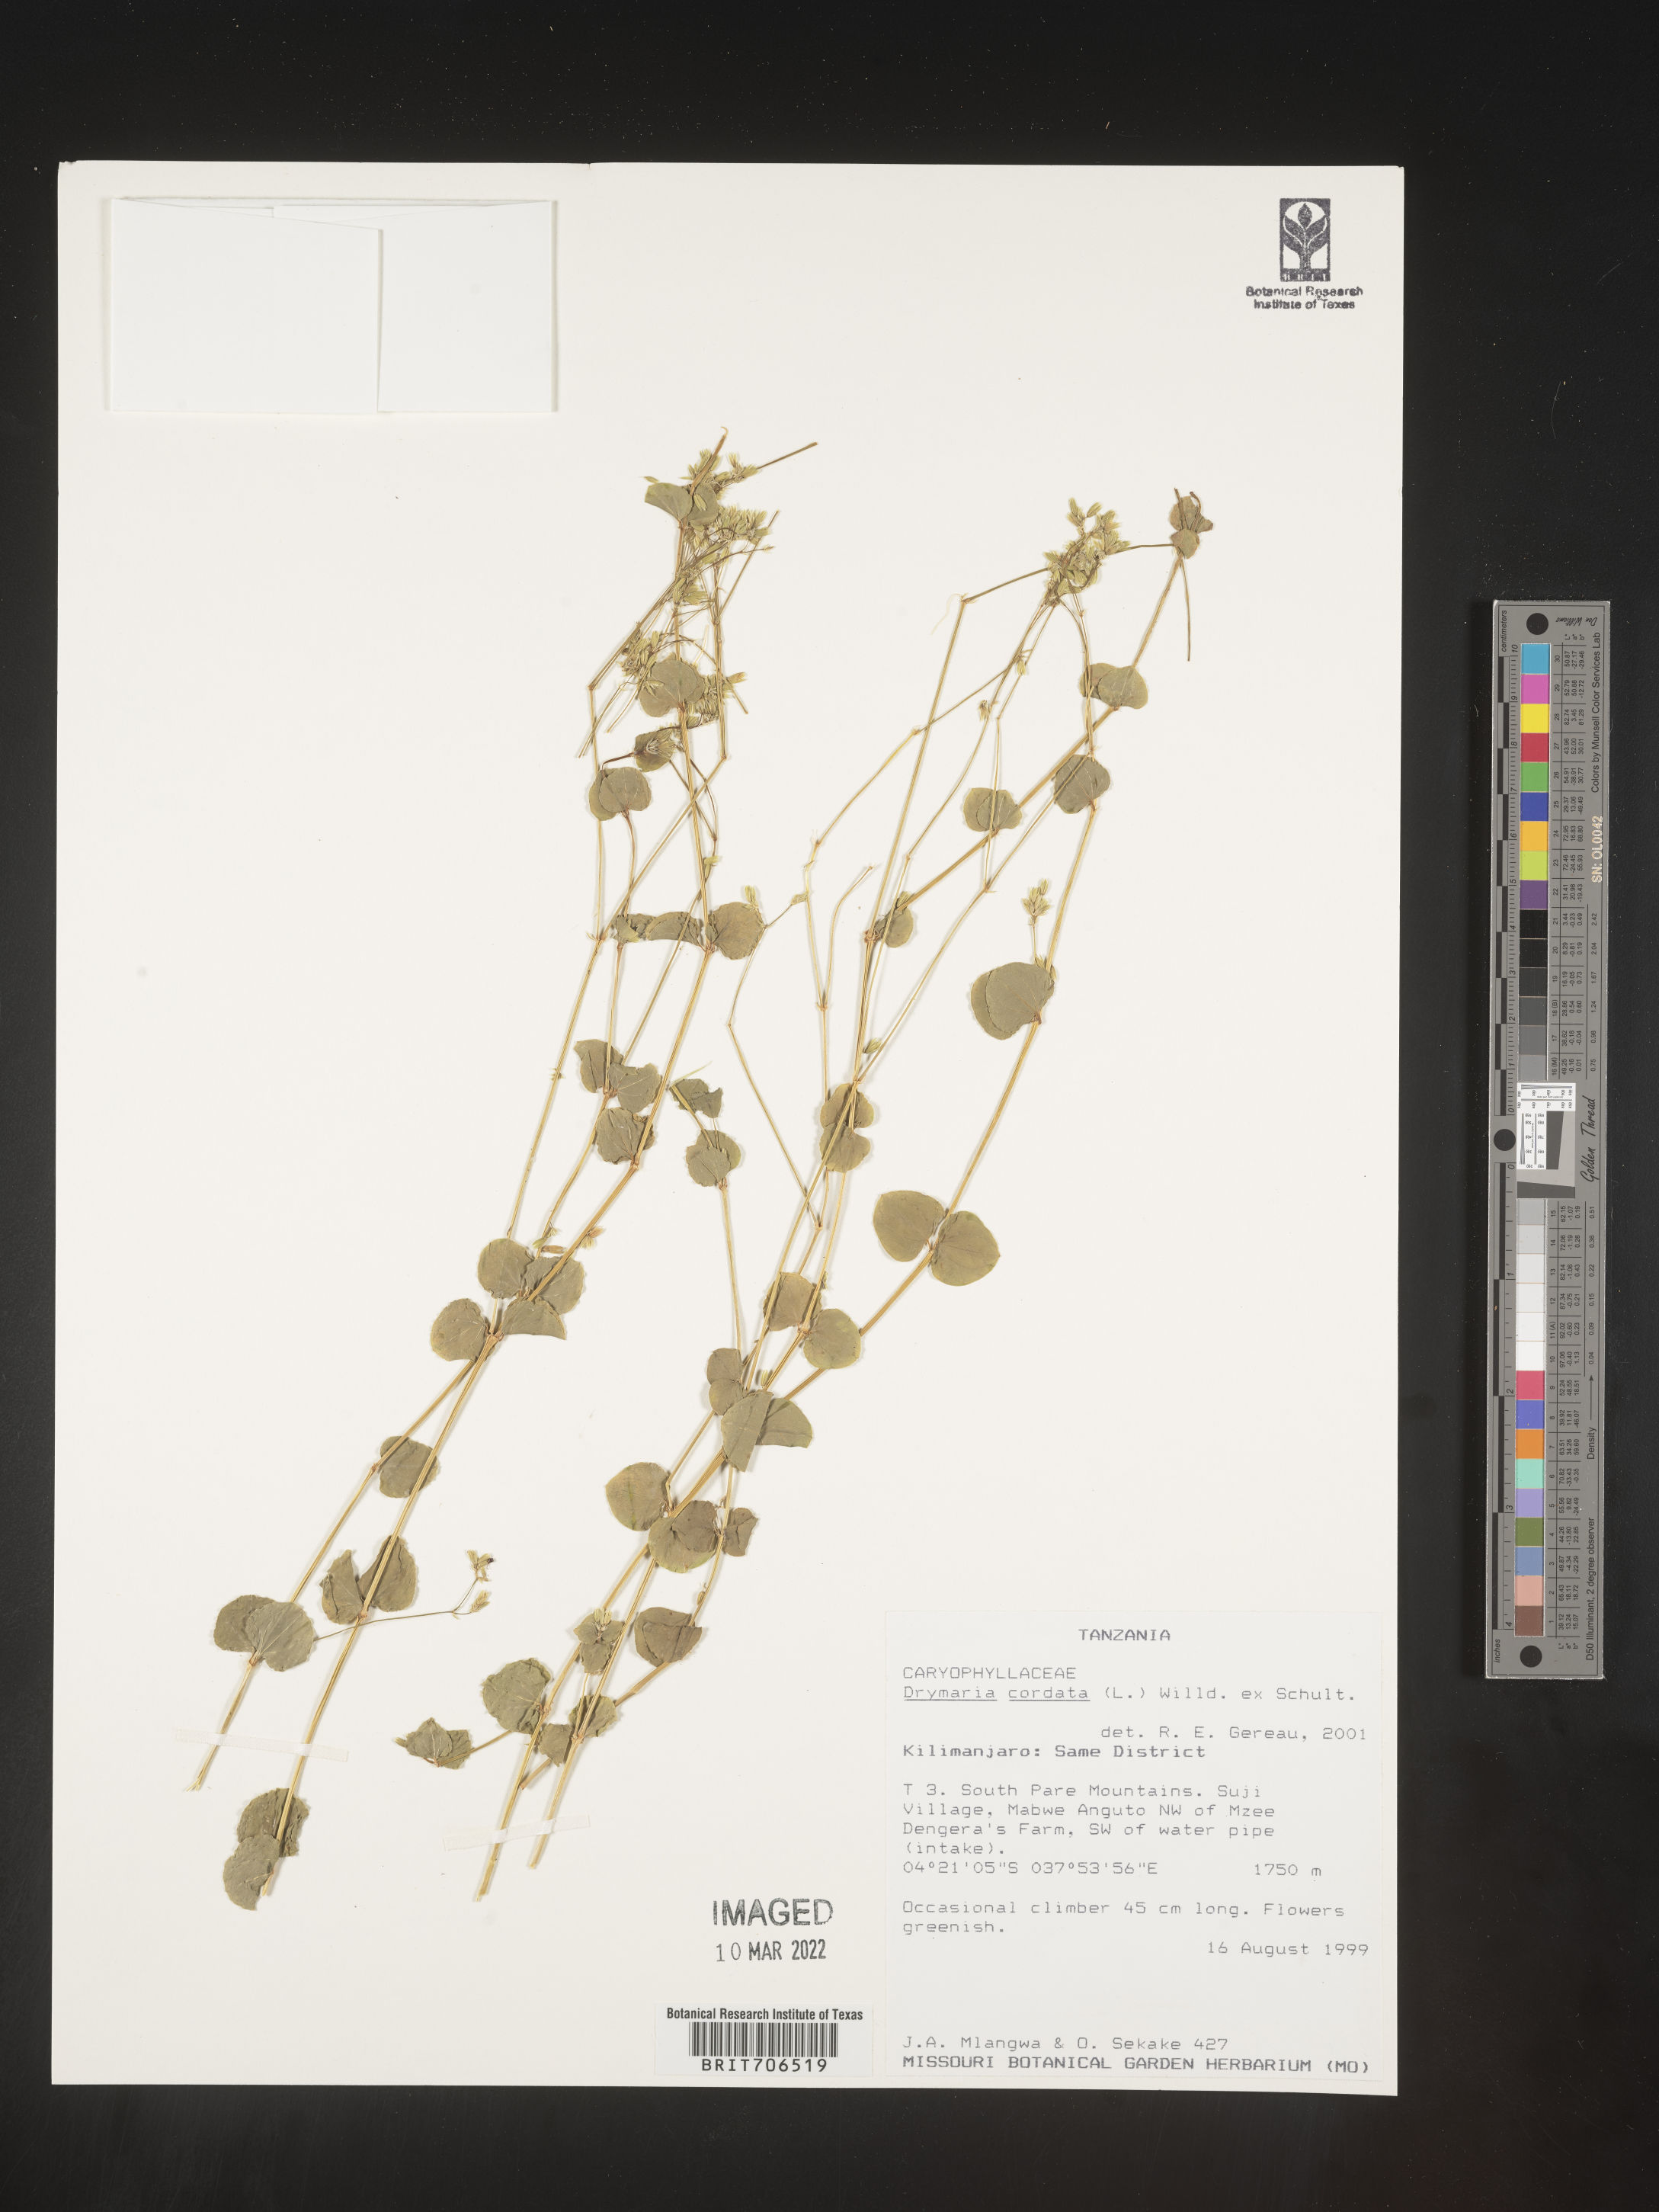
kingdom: Plantae
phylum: Tracheophyta
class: Magnoliopsida
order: Caryophyllales
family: Caryophyllaceae
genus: Drymaria
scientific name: Drymaria
